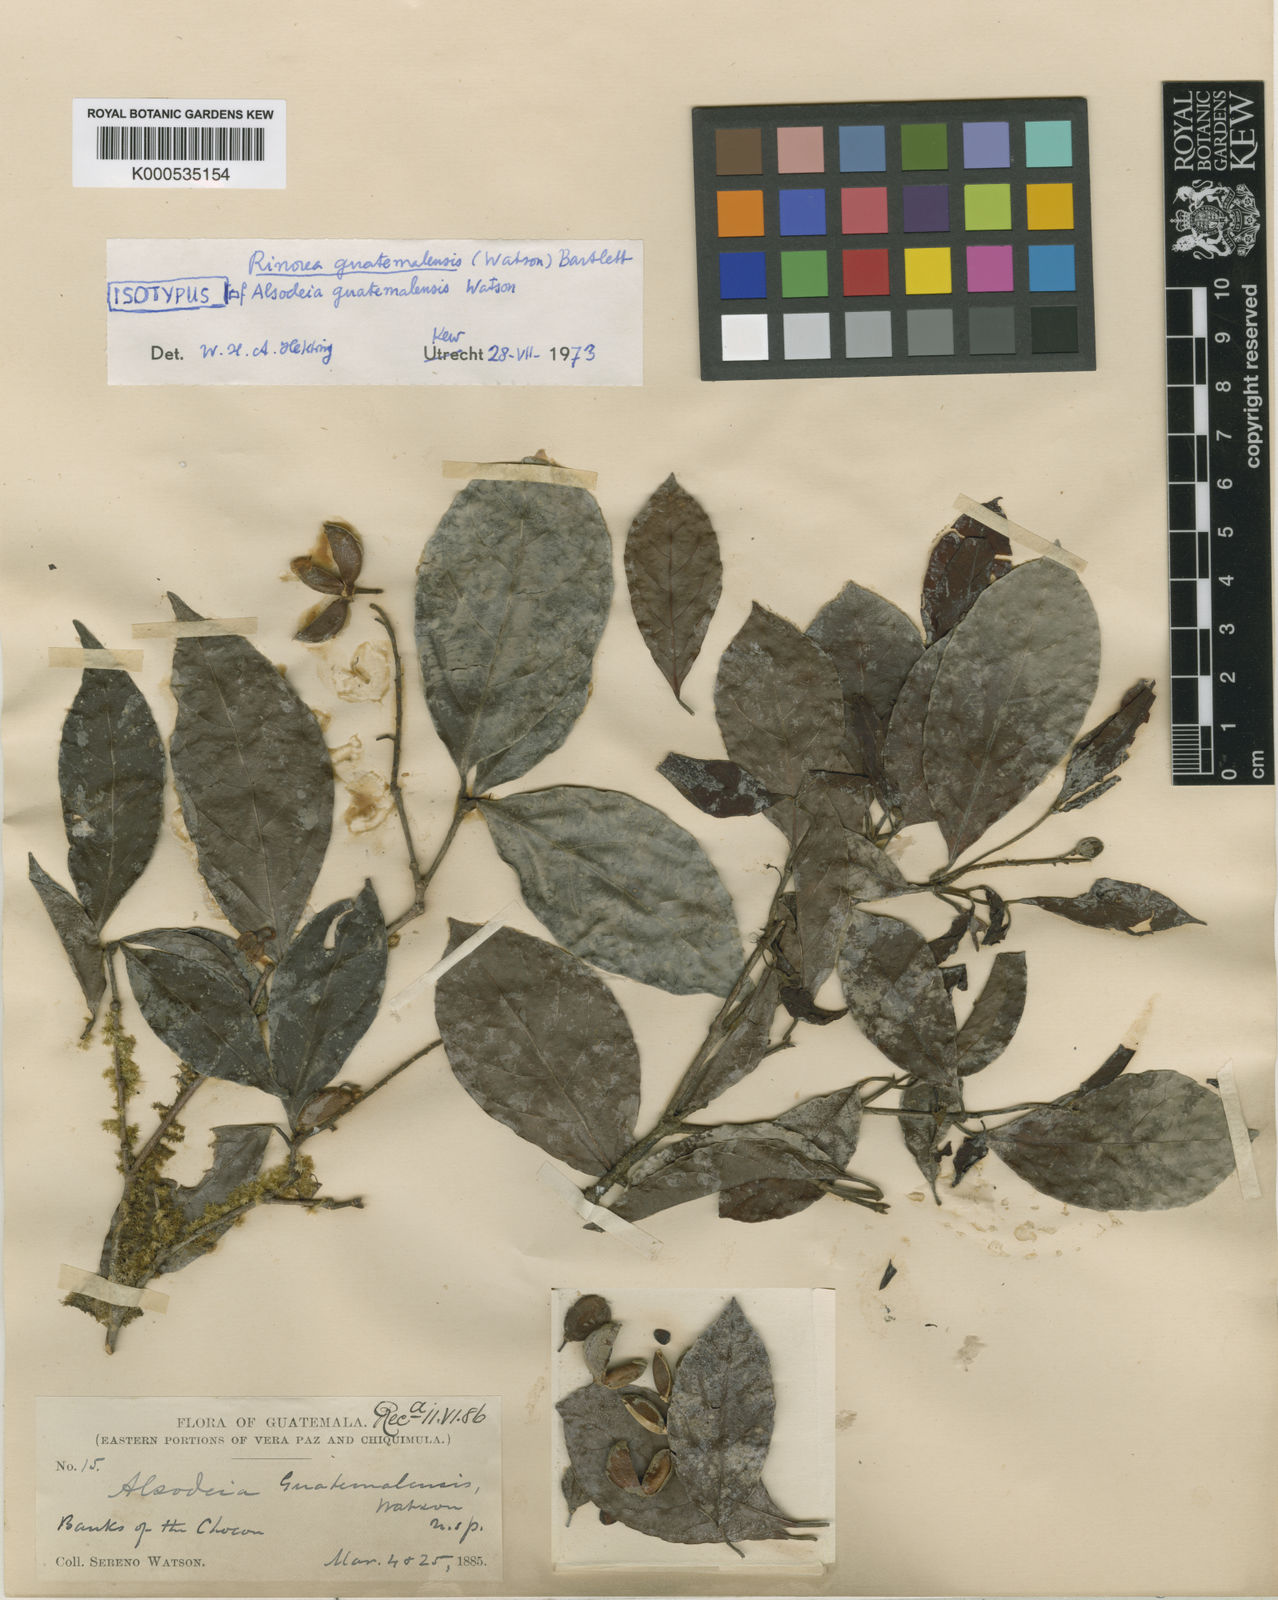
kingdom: Plantae
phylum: Tracheophyta
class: Magnoliopsida
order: Malpighiales
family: Violaceae
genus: Rinorea
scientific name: Rinorea guatemalensis
